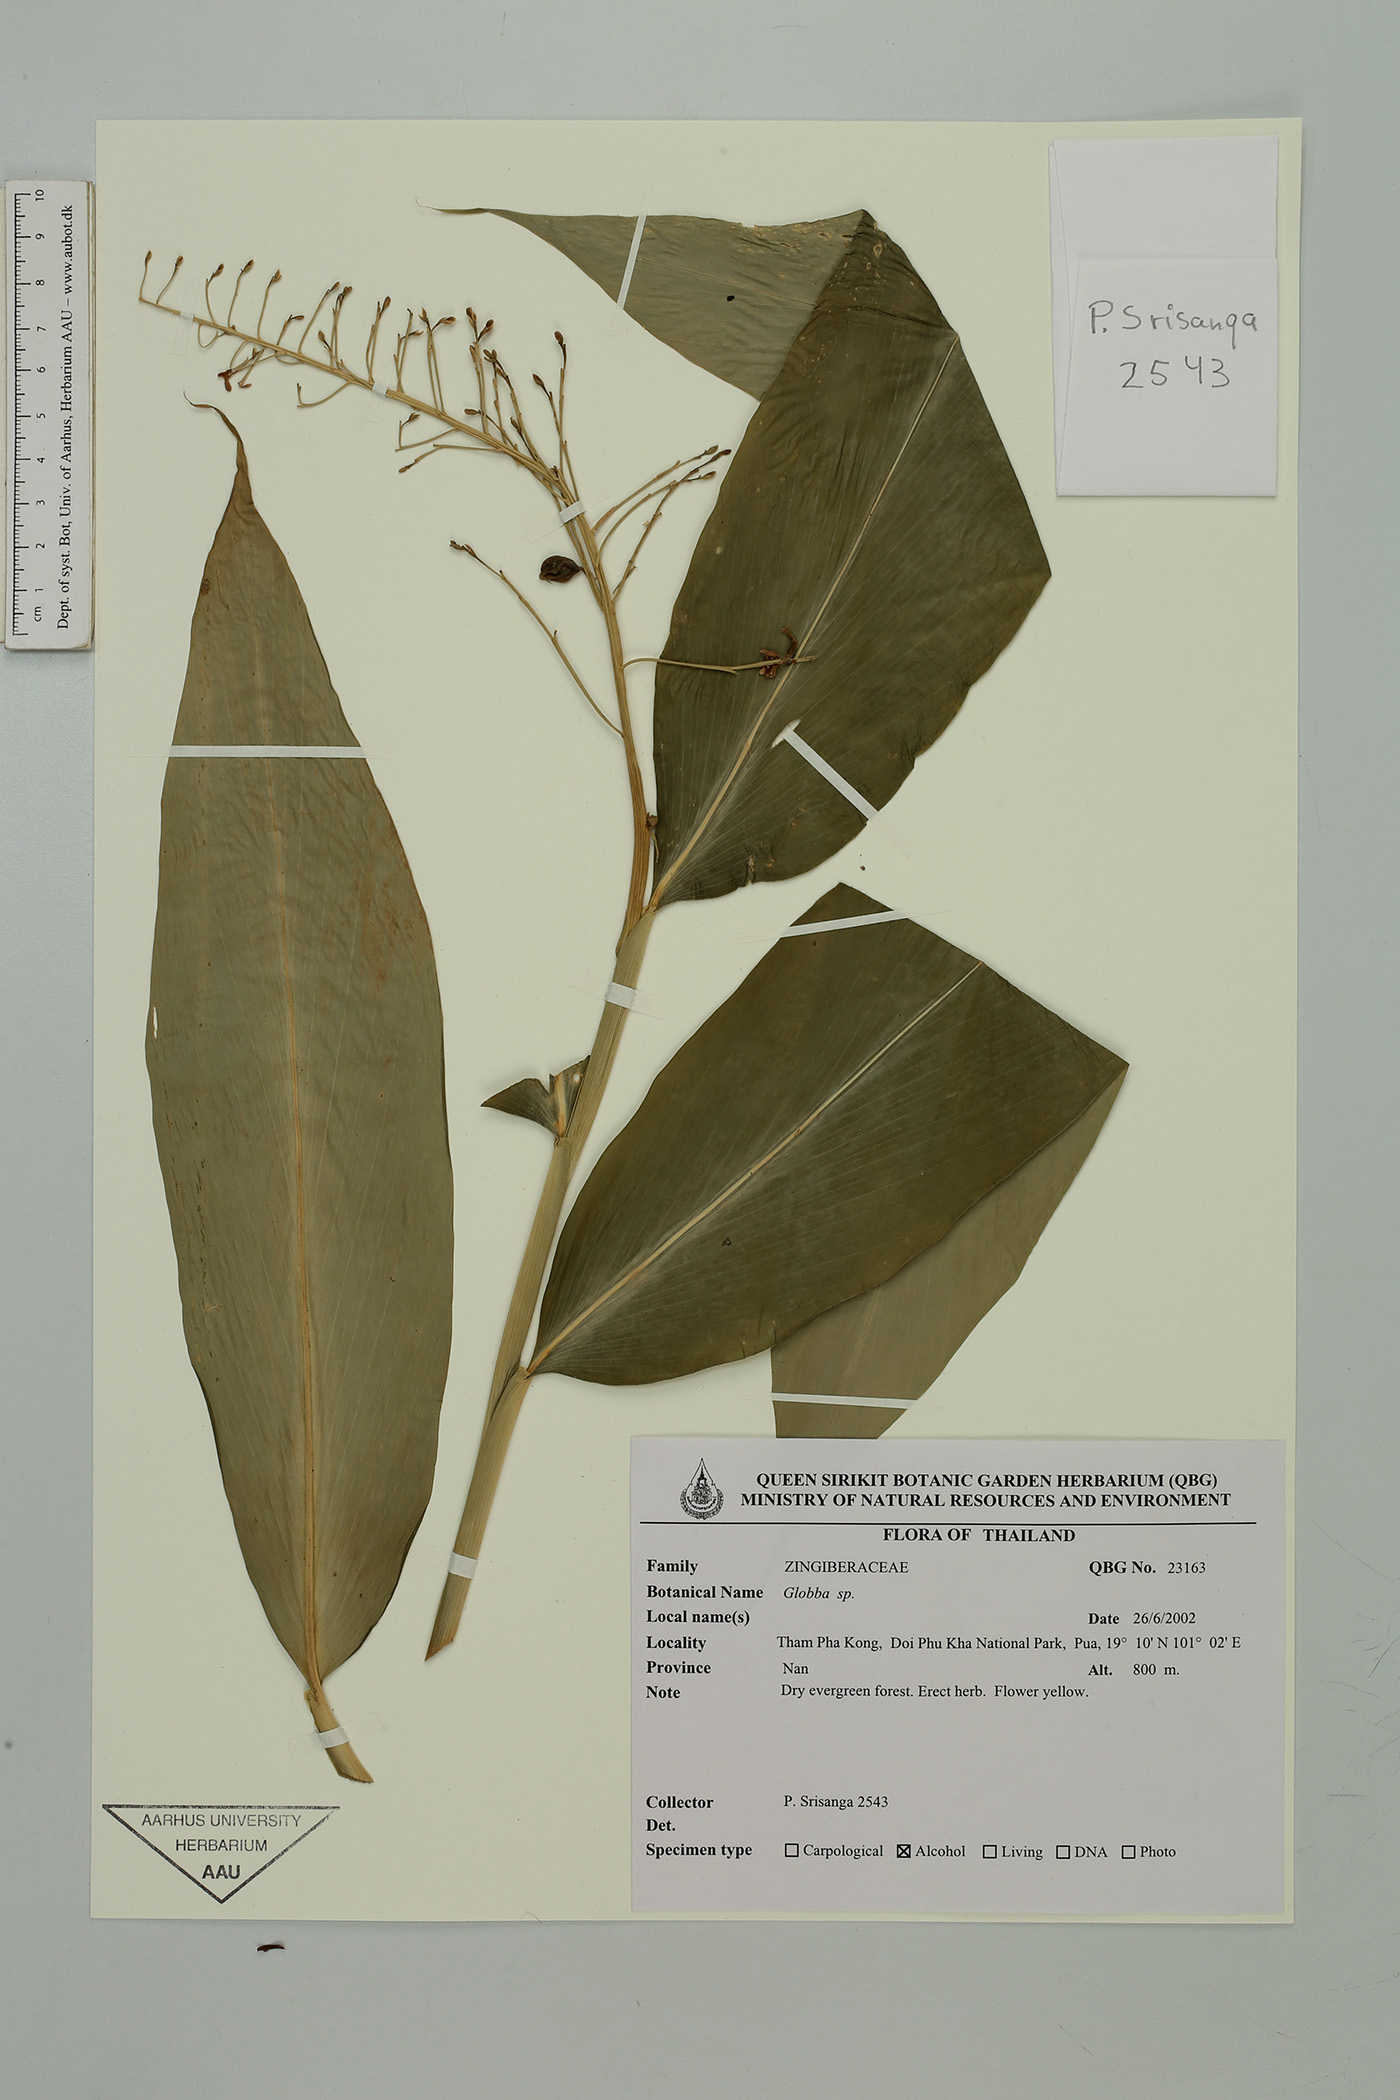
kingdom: Plantae
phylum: Tracheophyta
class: Liliopsida
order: Zingiberales
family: Zingiberaceae
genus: Globba
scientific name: Globba cataractarum
